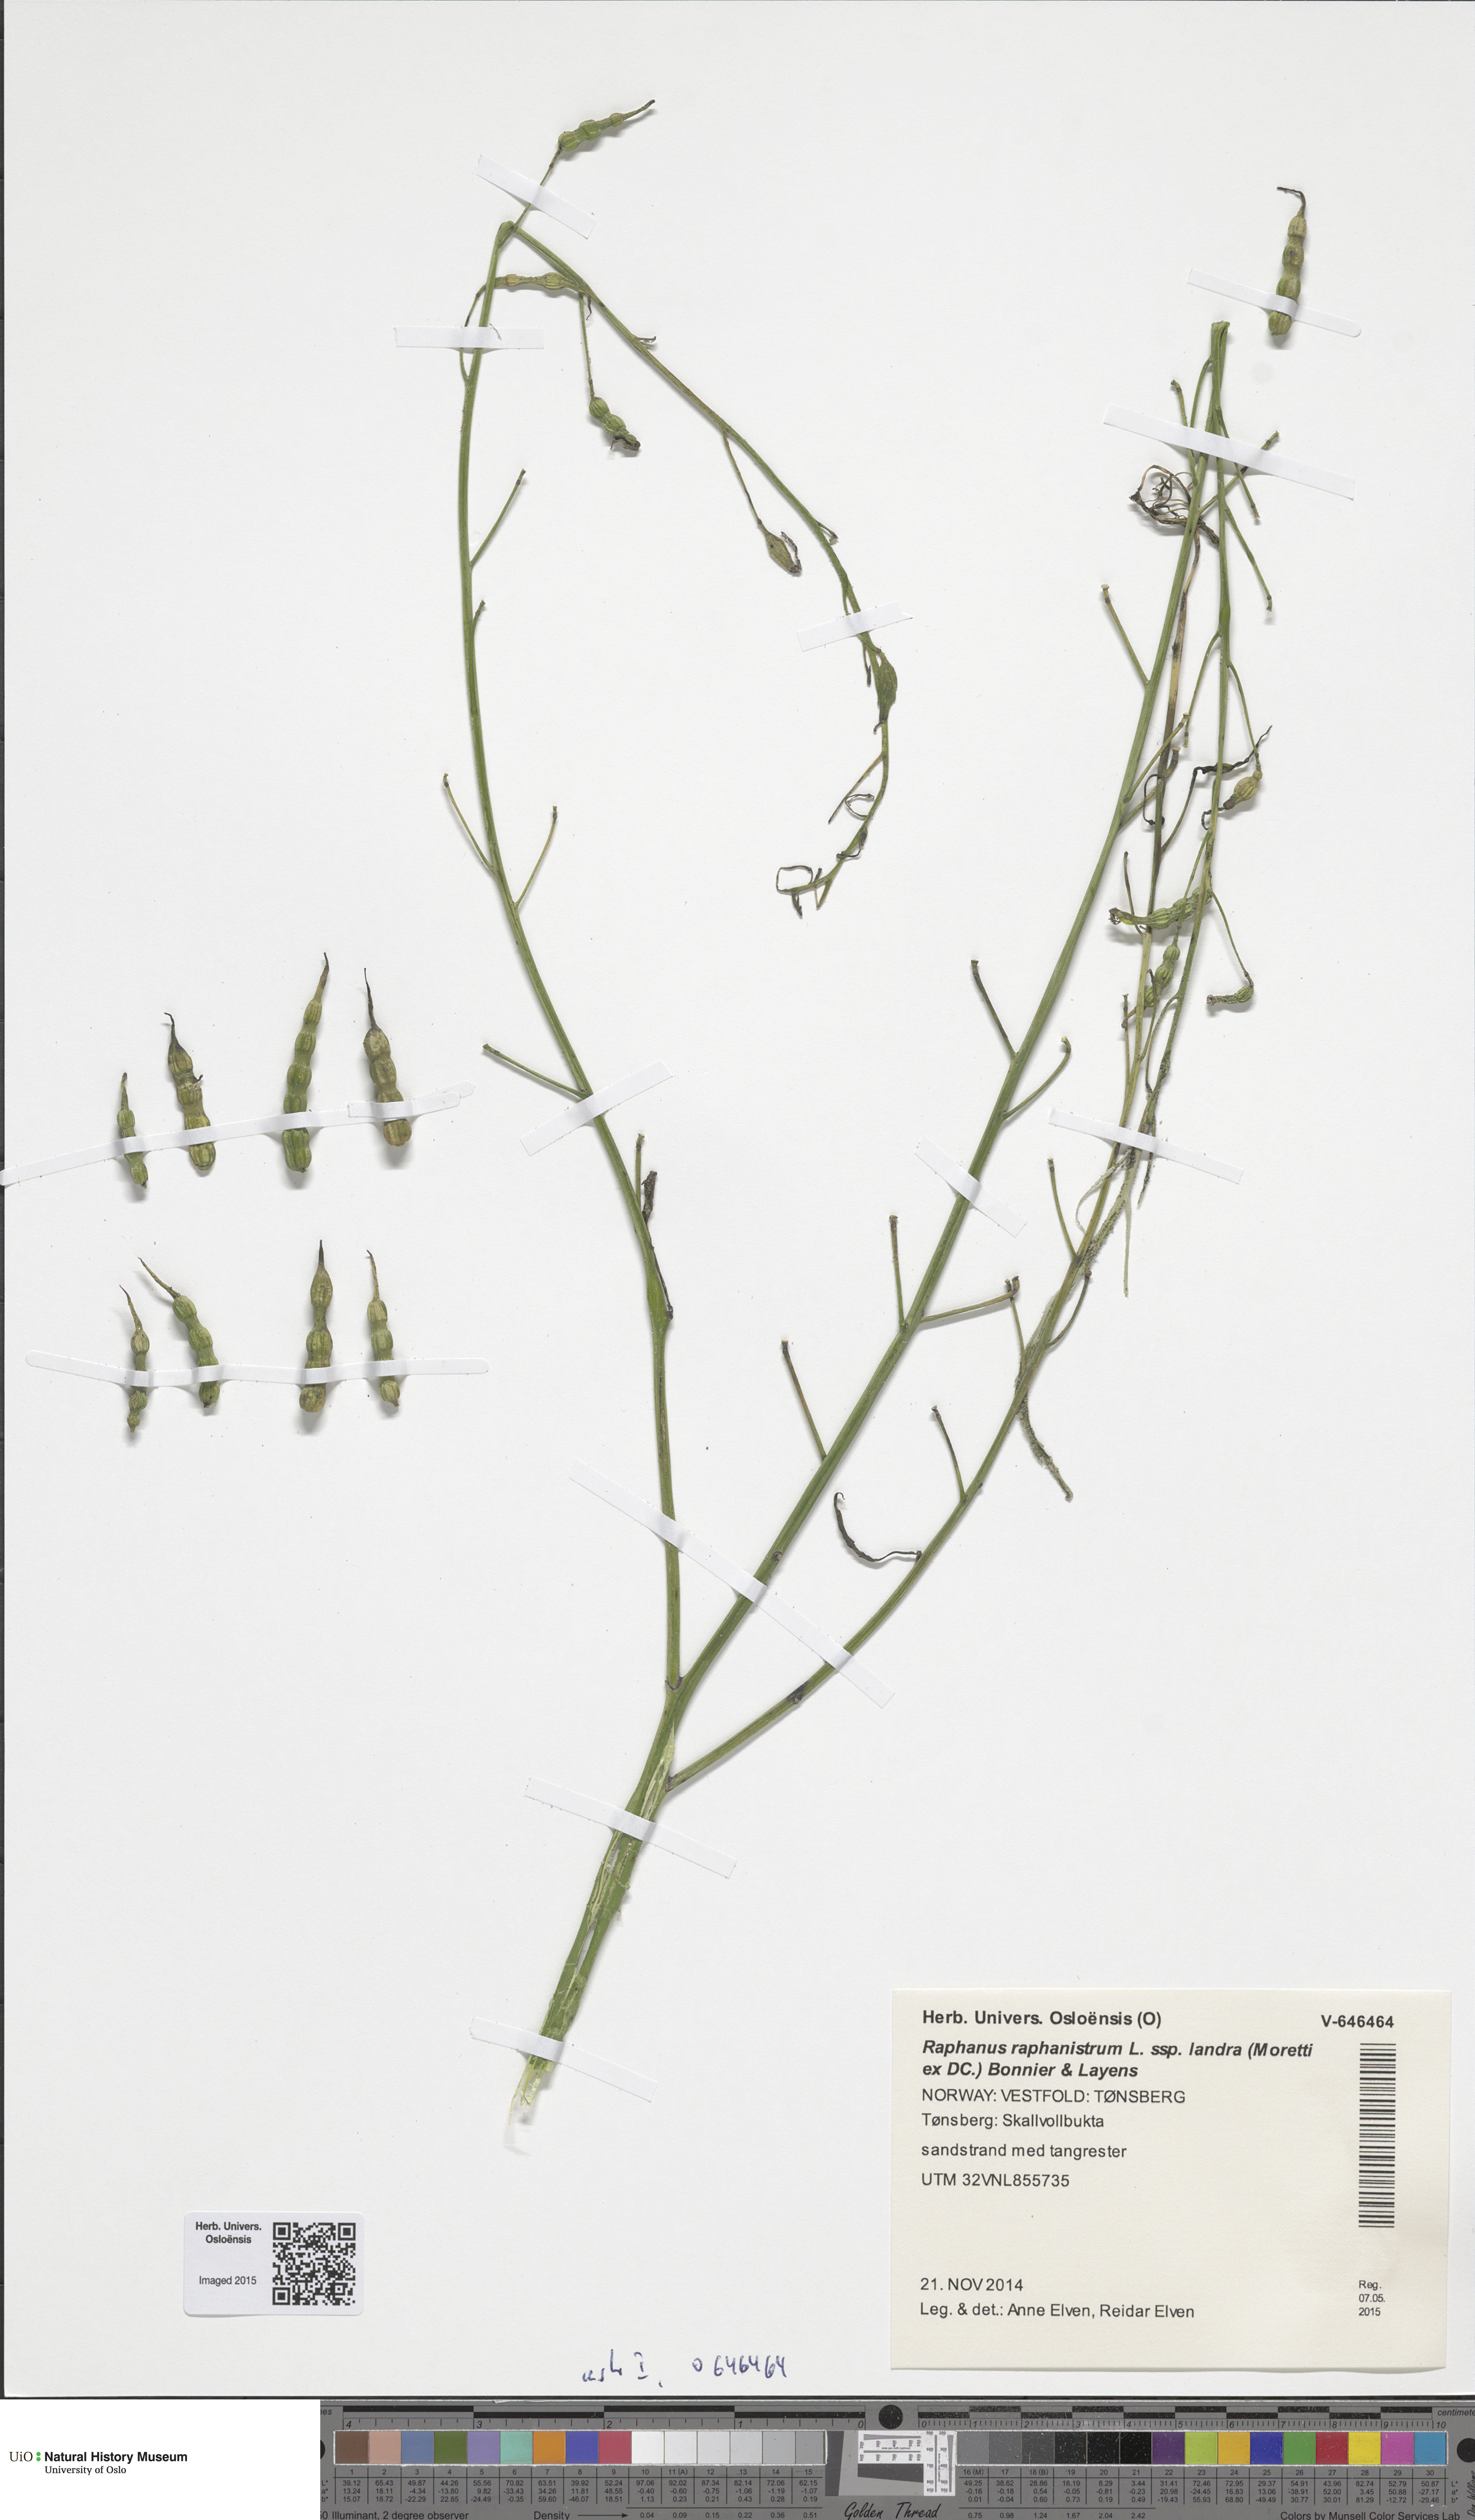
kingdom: Plantae
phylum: Tracheophyta
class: Magnoliopsida
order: Brassicales
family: Brassicaceae
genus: Raphanus
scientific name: Raphanus raphanistrum
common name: Wild radish
